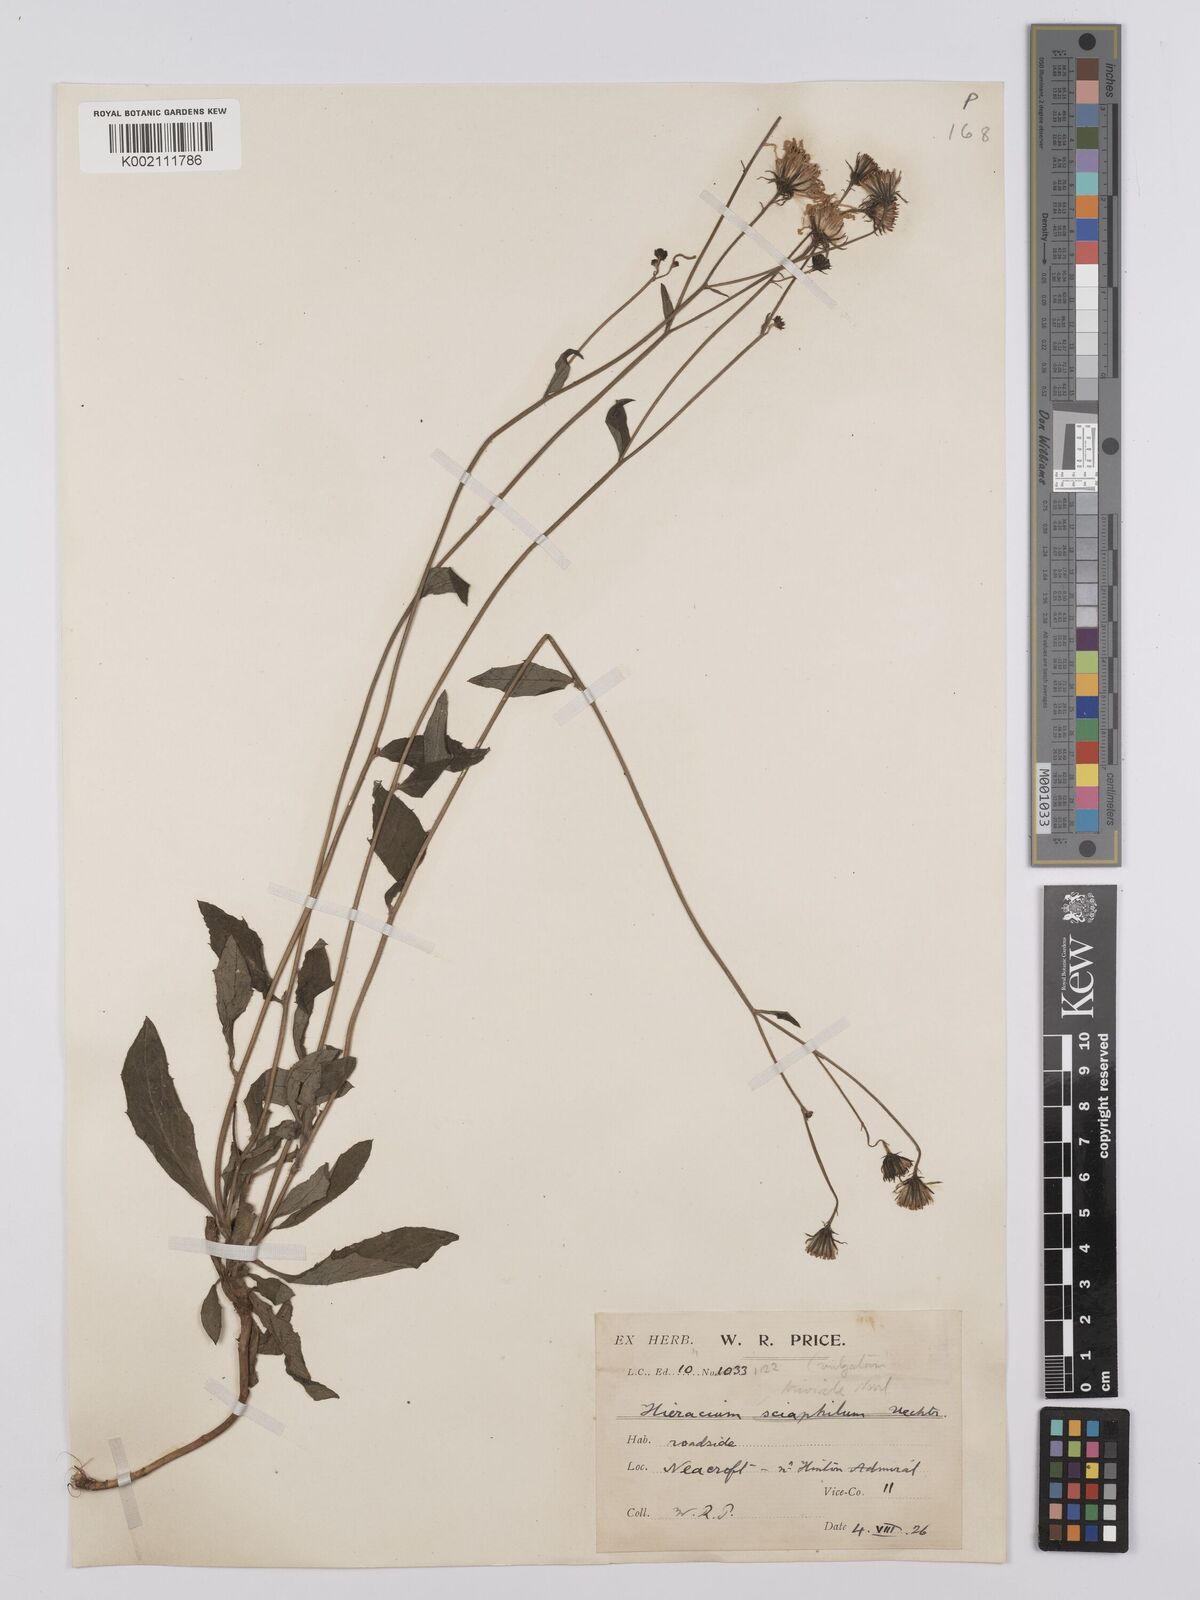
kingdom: Plantae
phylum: Tracheophyta
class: Magnoliopsida
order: Asterales
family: Asteraceae
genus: Hieracium
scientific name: Hieracium lachenalii
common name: Common hawkweed
